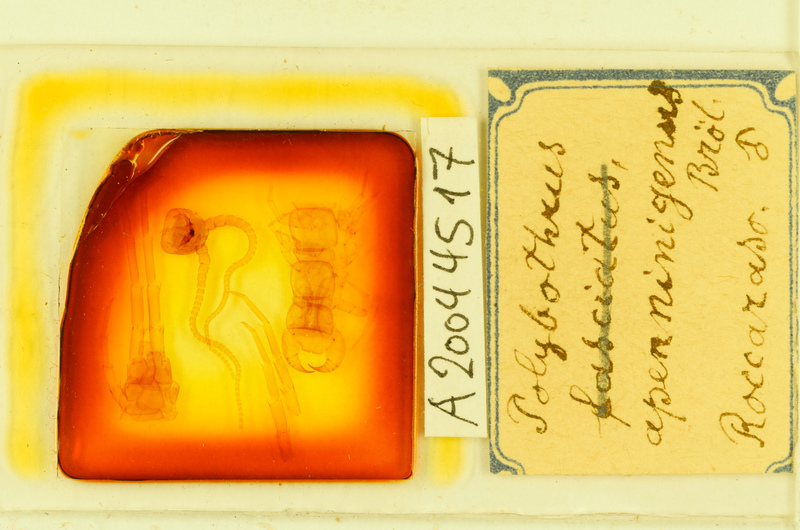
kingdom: Animalia
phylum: Arthropoda
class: Chilopoda
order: Lithobiomorpha
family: Lithobiidae
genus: Polybothrus
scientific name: Polybothrus
